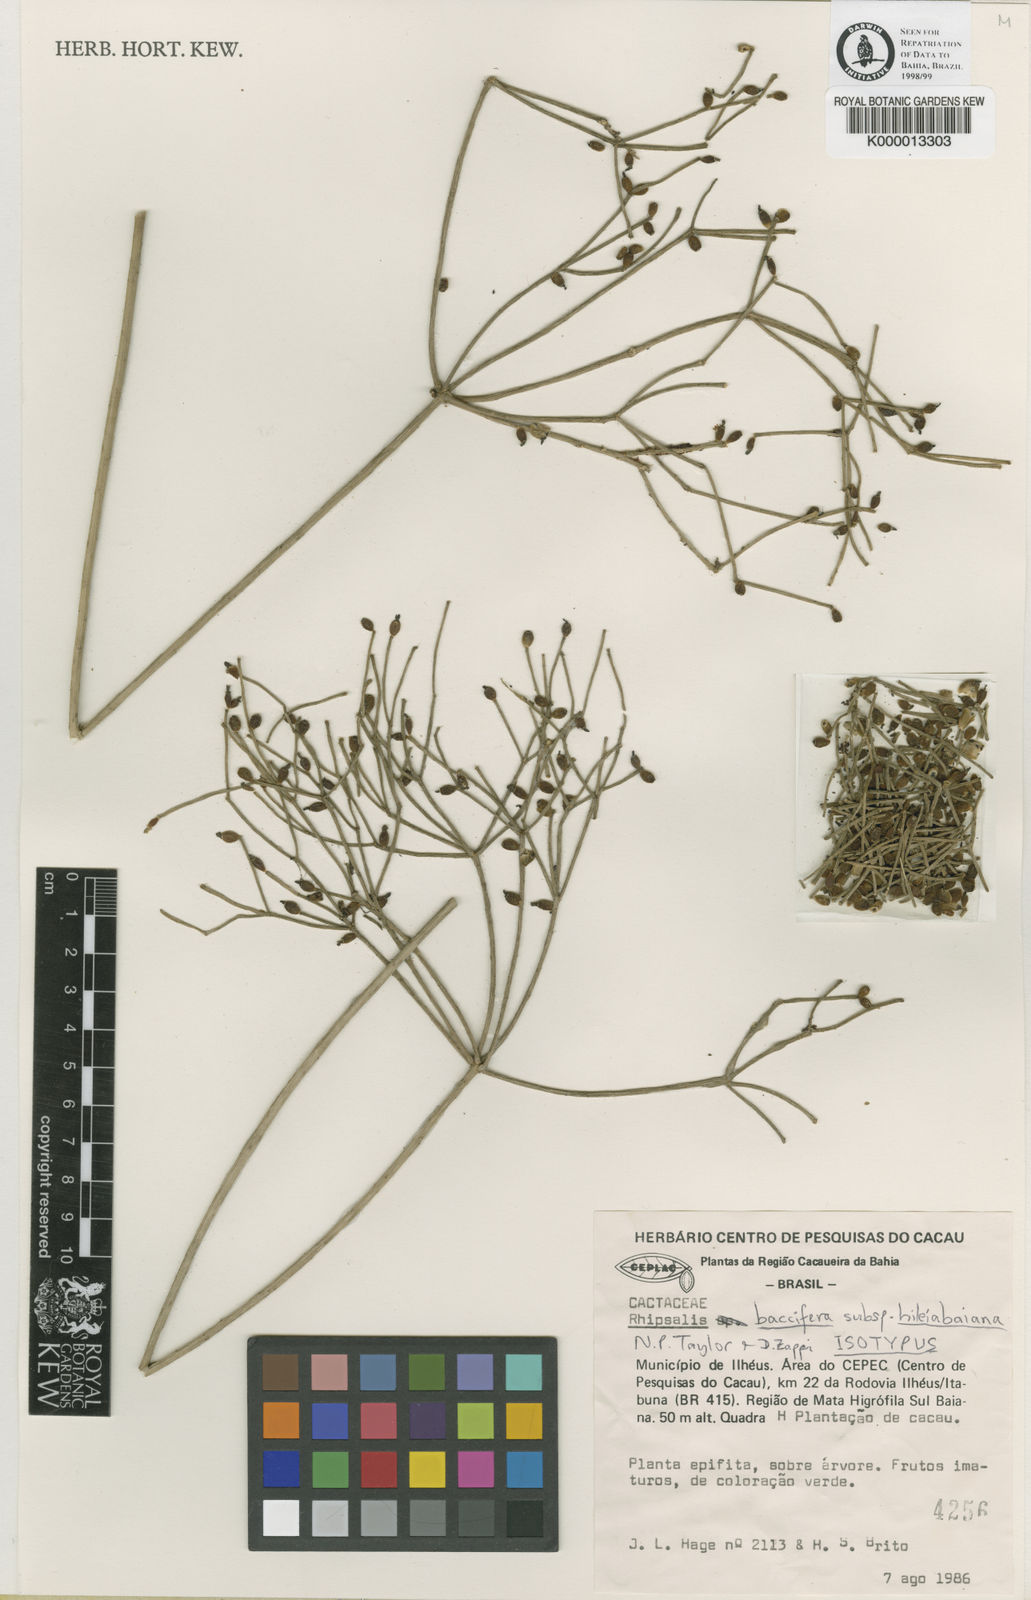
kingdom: Plantae
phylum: Tracheophyta
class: Magnoliopsida
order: Caryophyllales
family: Cactaceae
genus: Rhipsalis
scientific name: Rhipsalis hileiabaiana
